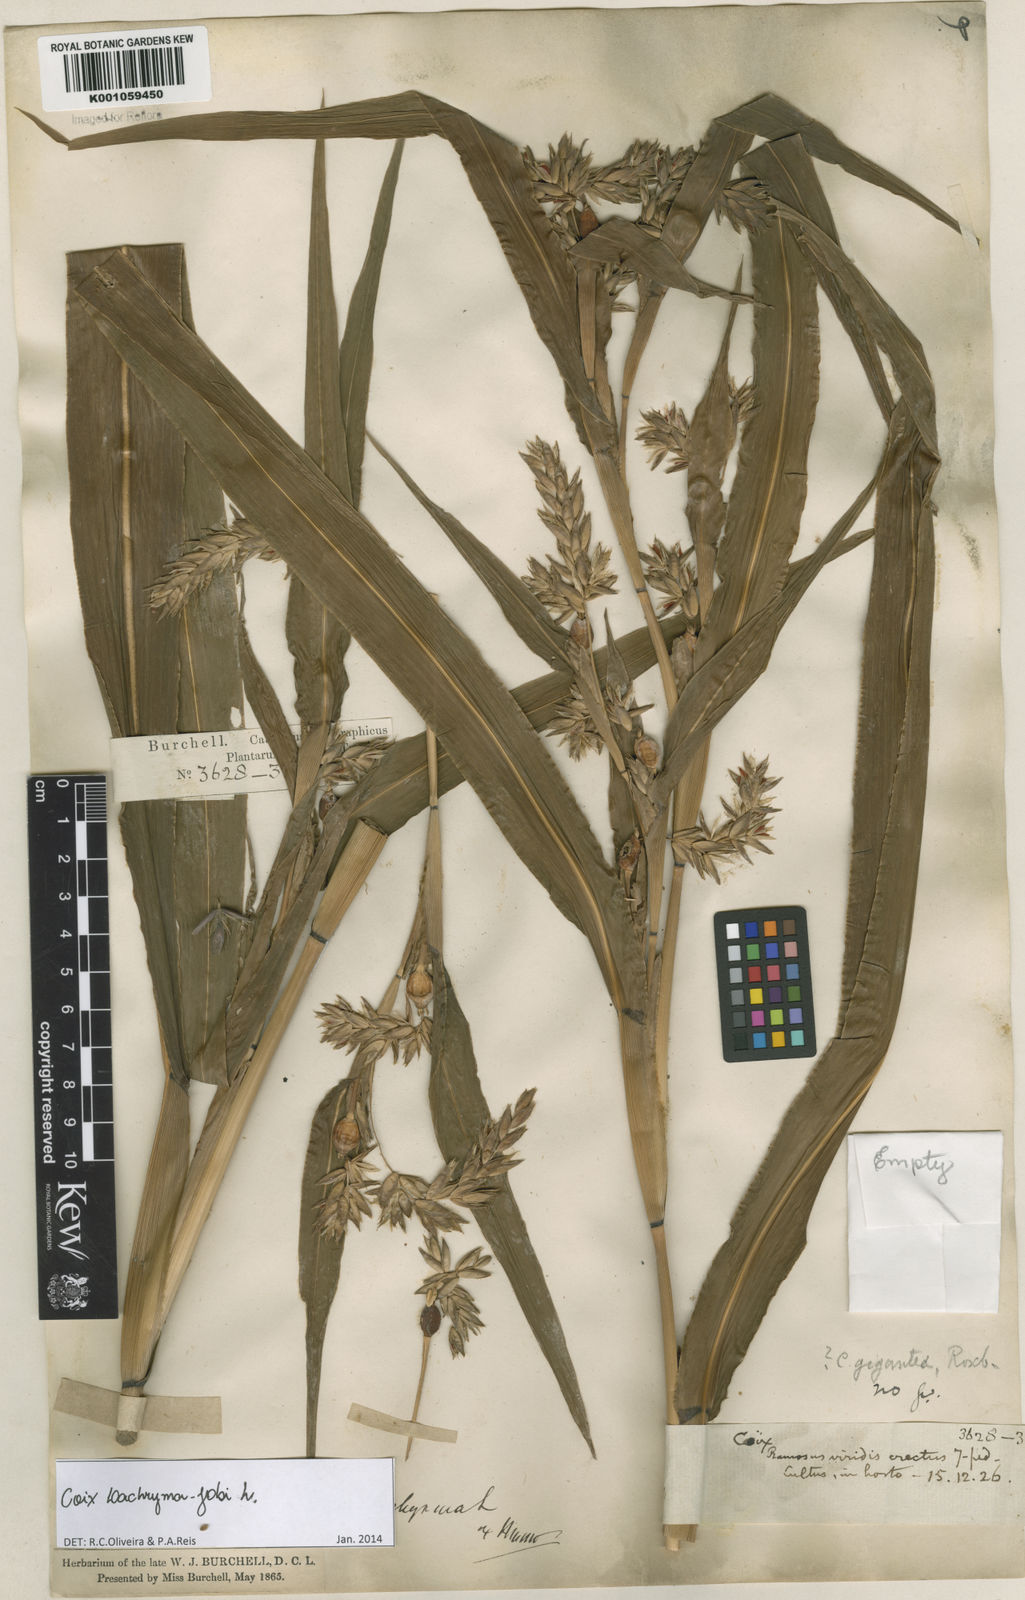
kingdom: Plantae
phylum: Tracheophyta
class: Liliopsida
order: Poales
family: Poaceae
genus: Coix
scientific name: Coix lacryma-jobi
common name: Job's tears
